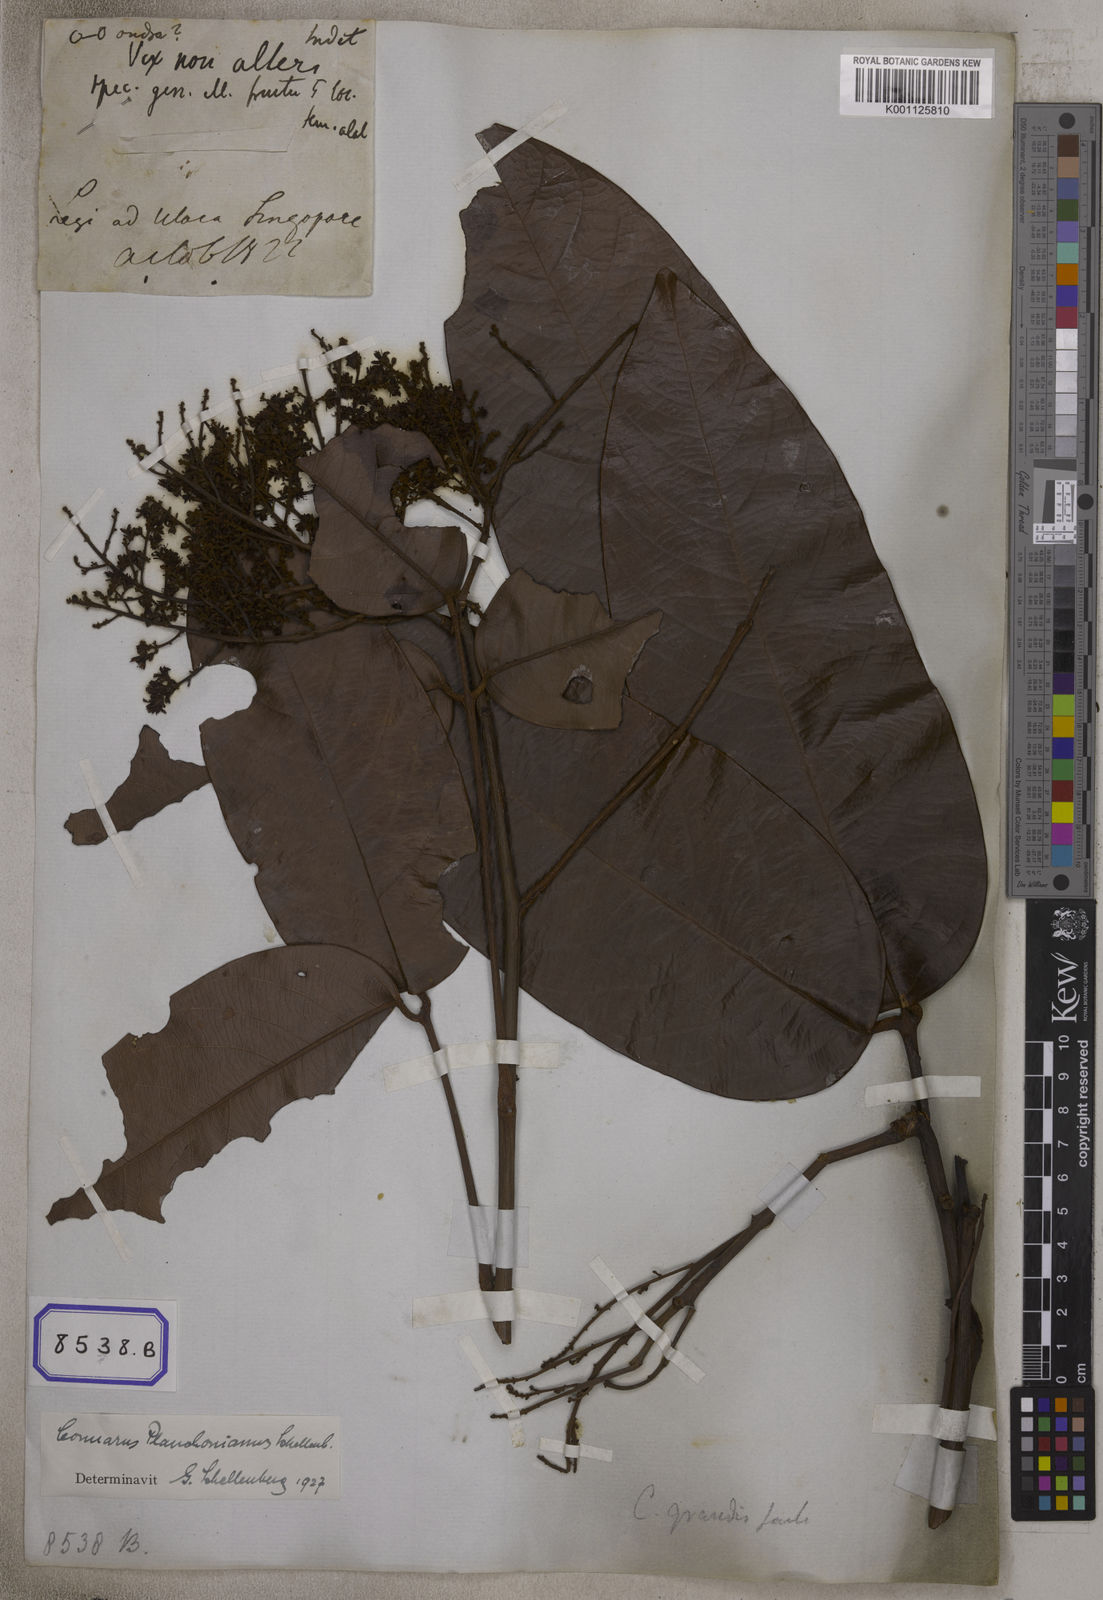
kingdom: Plantae
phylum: Tracheophyta
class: Magnoliopsida
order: Oxalidales
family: Connaraceae
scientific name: Connaraceae
